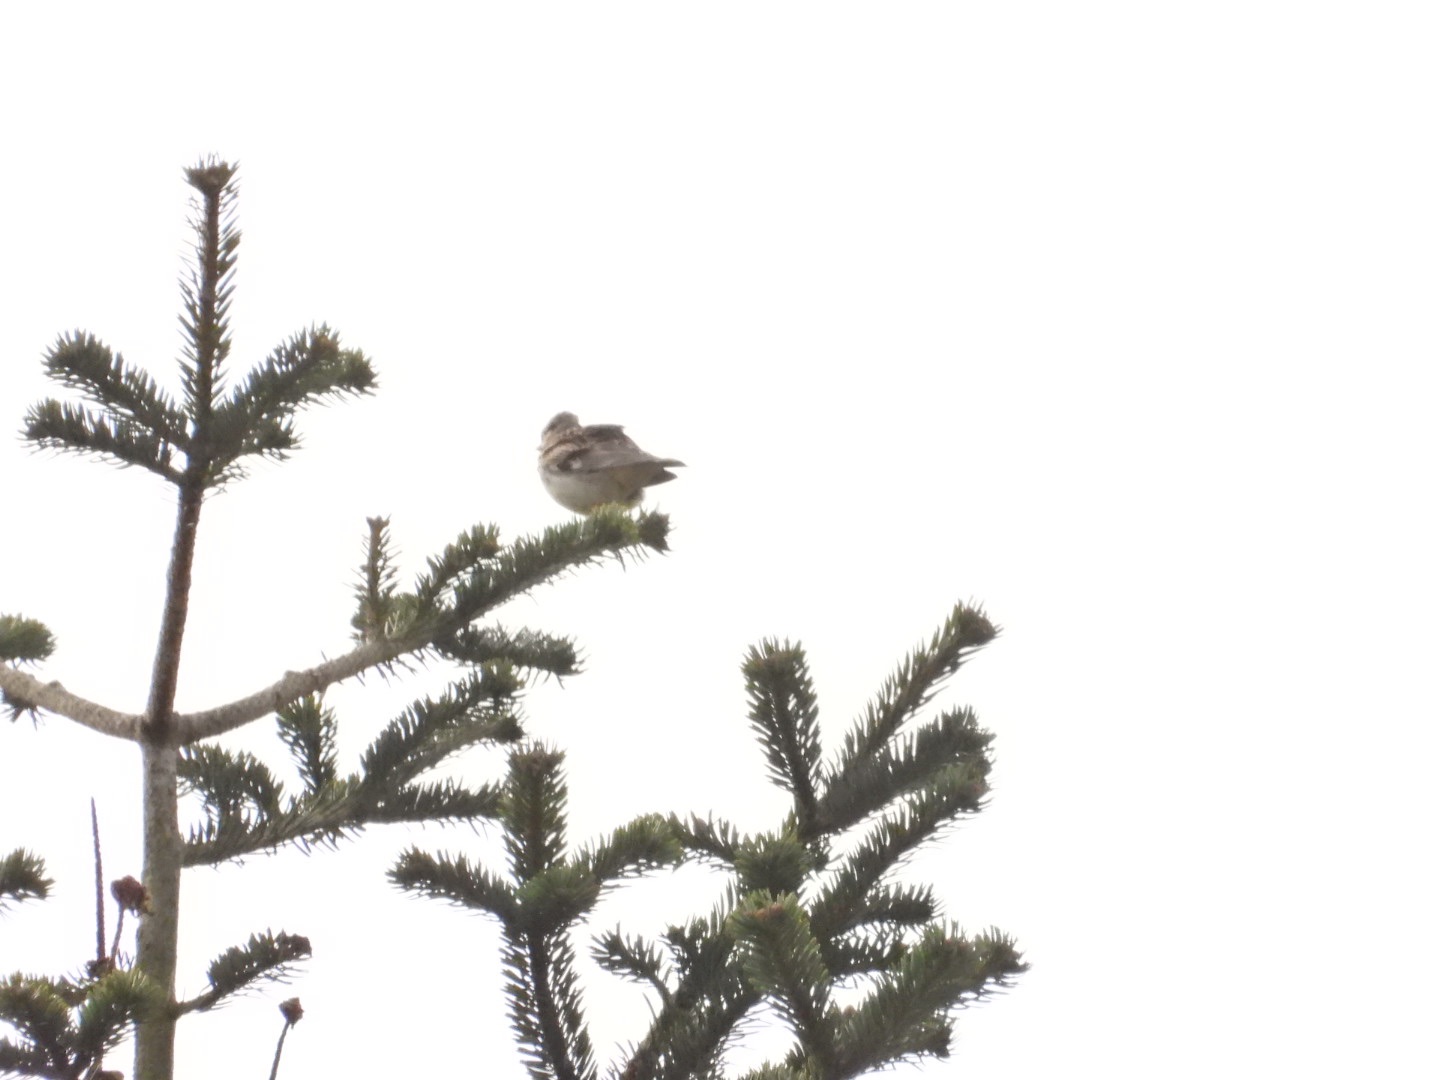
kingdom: Animalia
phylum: Chordata
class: Aves
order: Passeriformes
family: Alaudidae
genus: Lullula
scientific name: Lullula arborea
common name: Hedelærke
